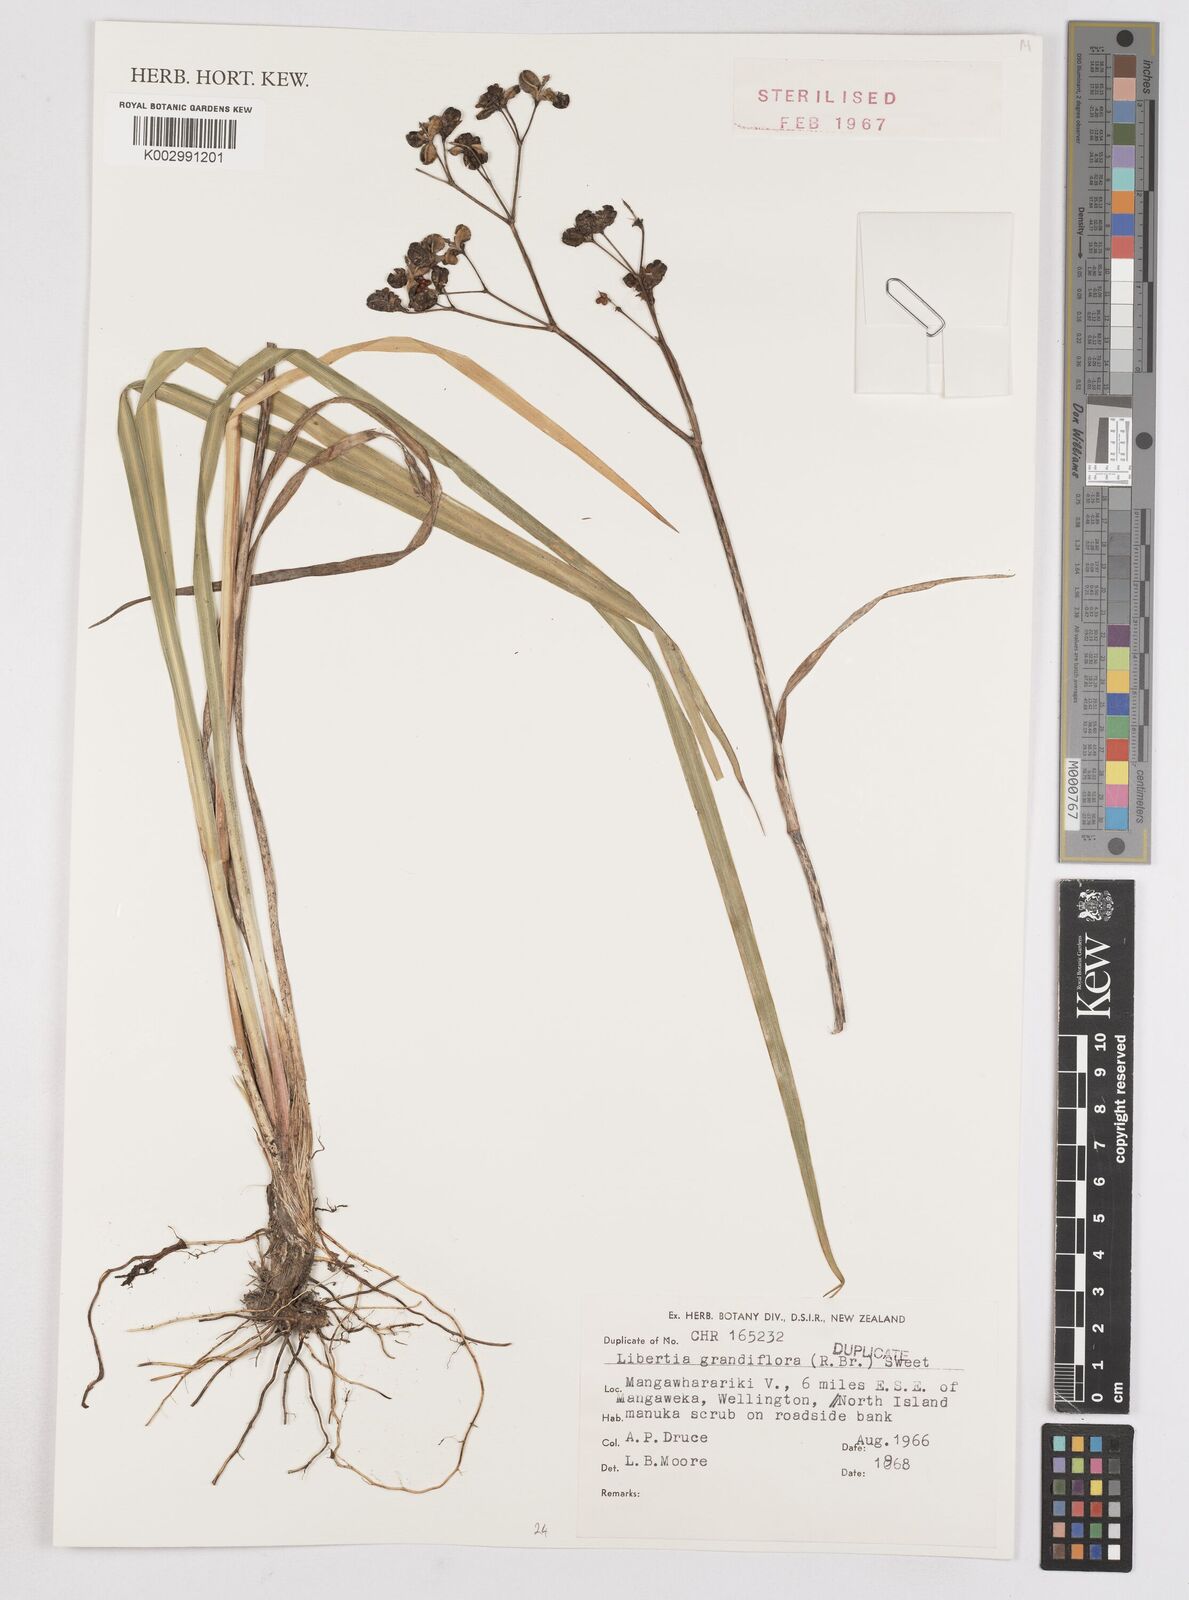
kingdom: Plantae
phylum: Tracheophyta
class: Liliopsida
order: Asparagales
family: Iridaceae
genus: Libertia
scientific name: Libertia grandiflora
